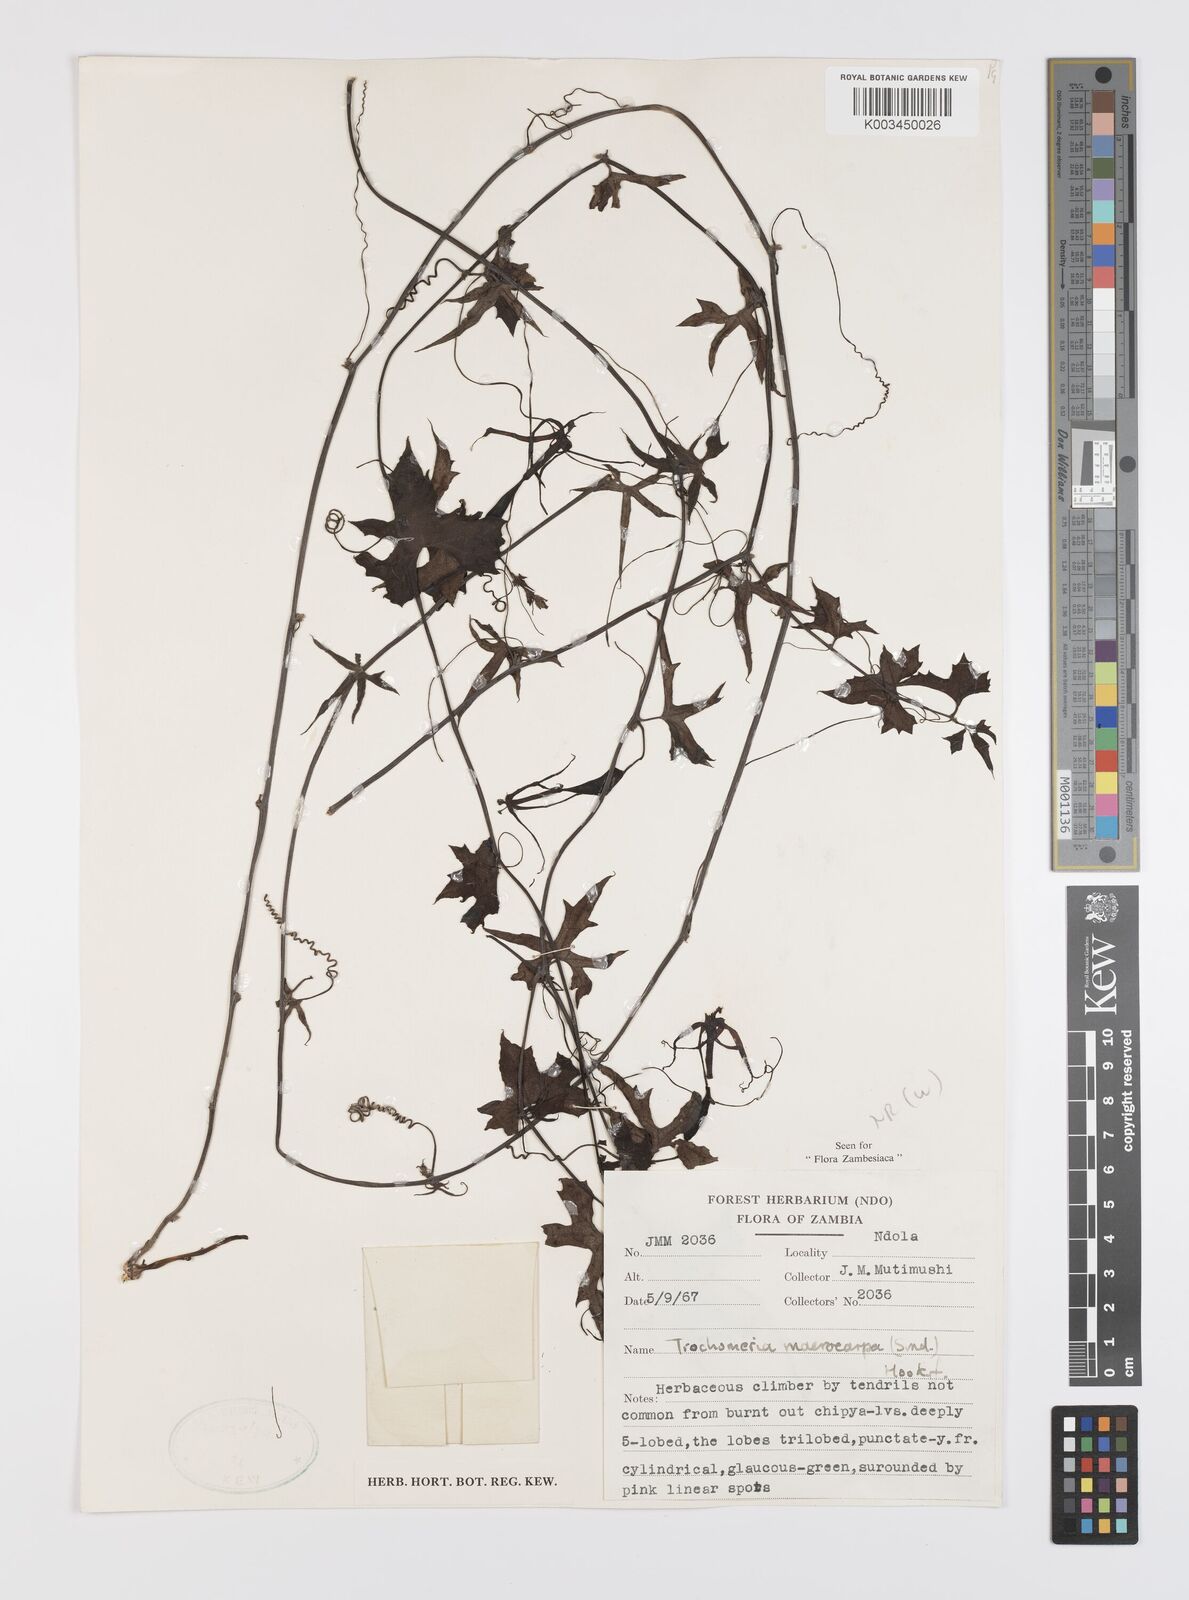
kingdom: Plantae
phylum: Tracheophyta
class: Magnoliopsida
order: Cucurbitales
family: Cucurbitaceae
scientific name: Cucurbitaceae
